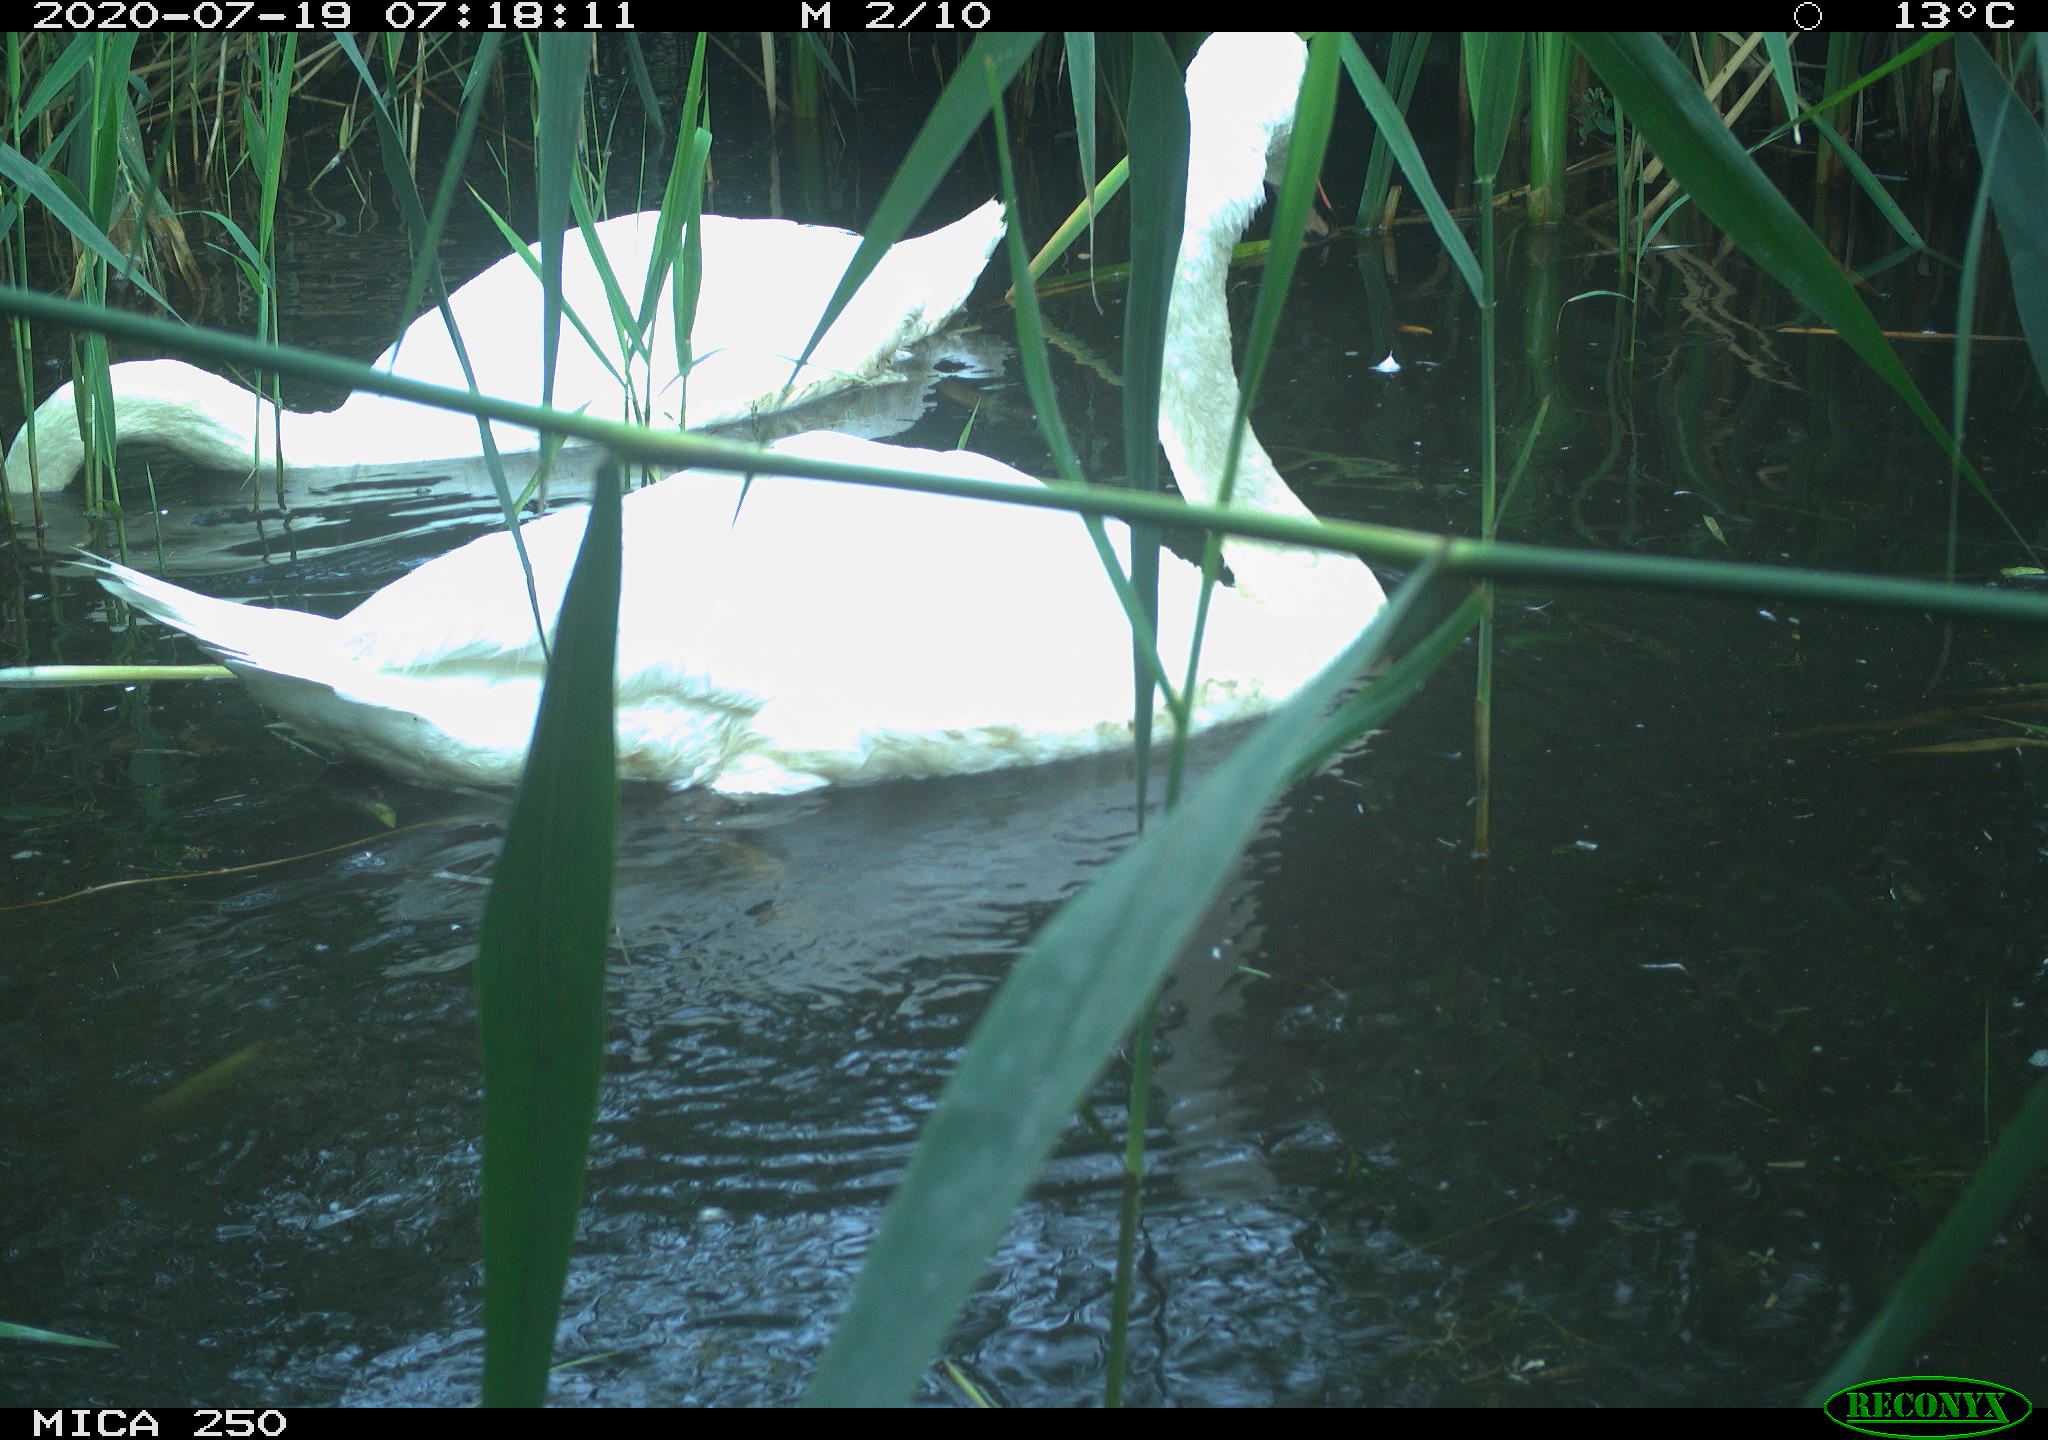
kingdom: Animalia
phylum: Chordata
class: Aves
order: Anseriformes
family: Anatidae
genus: Cygnus
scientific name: Cygnus olor
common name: Mute swan
